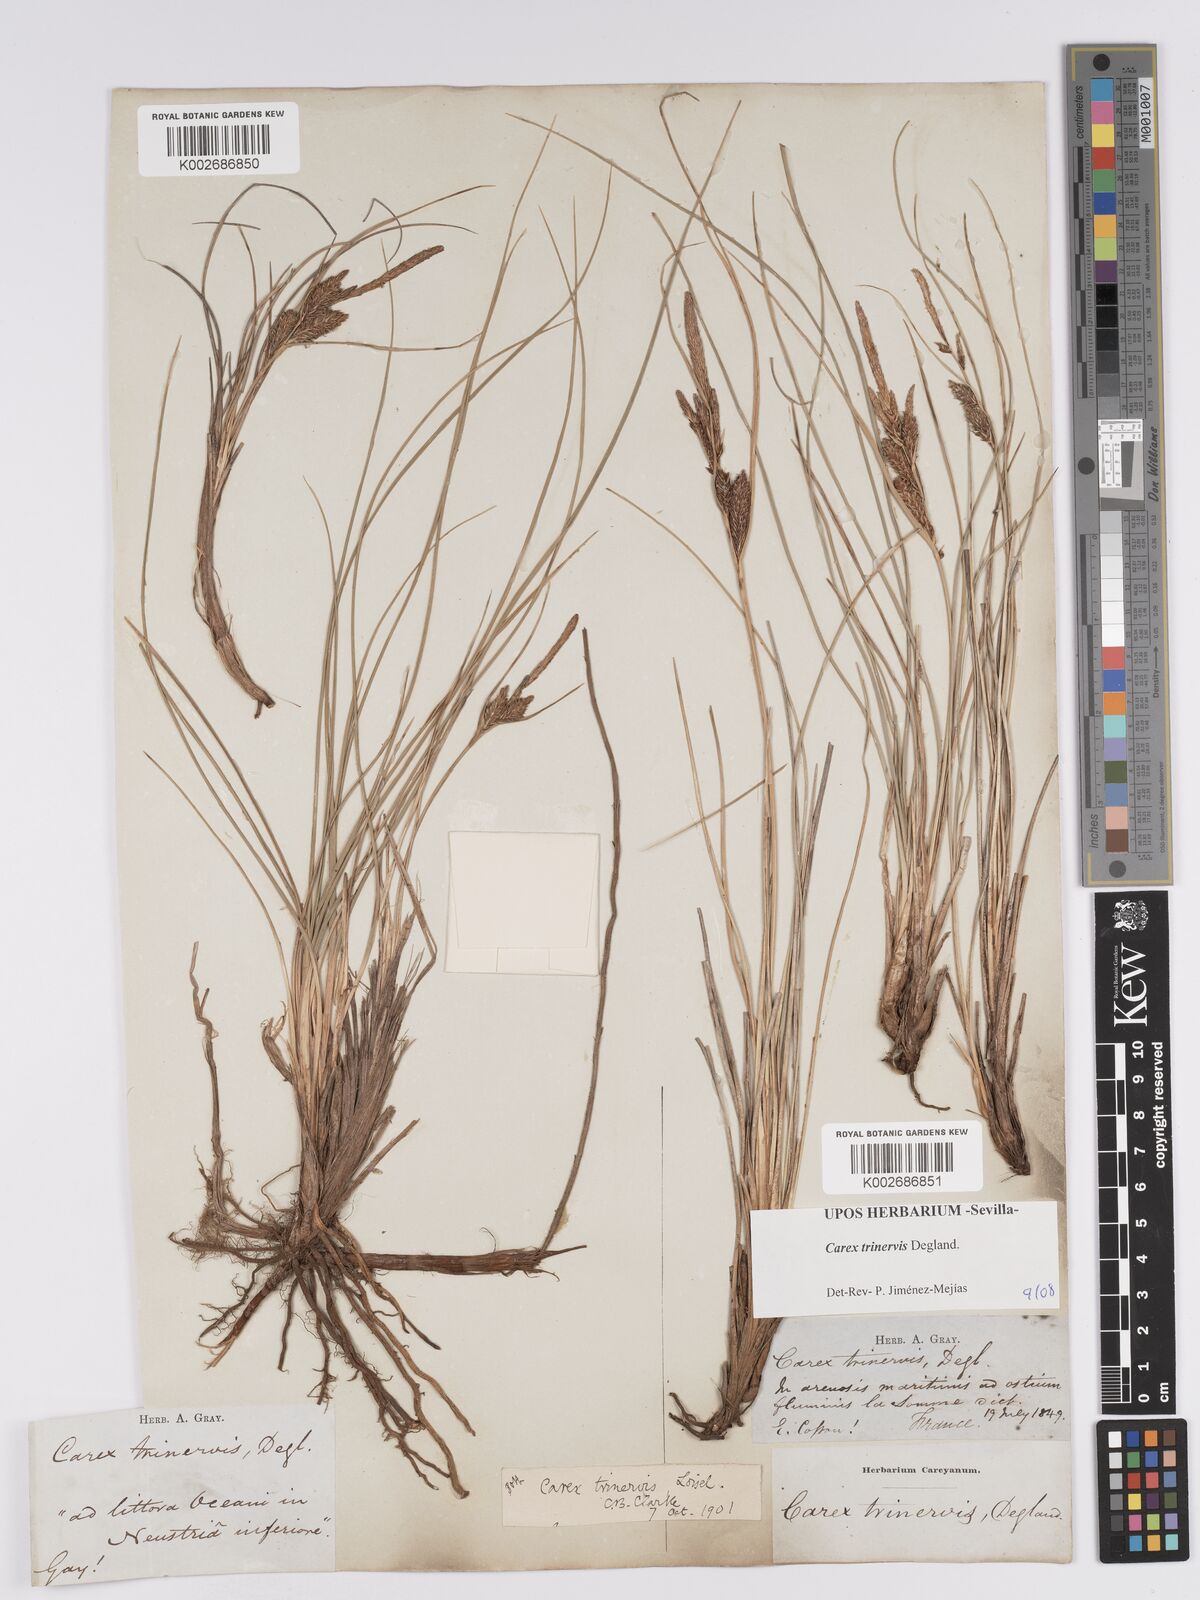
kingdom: Plantae
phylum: Tracheophyta
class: Liliopsida
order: Poales
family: Cyperaceae
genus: Carex
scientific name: Carex trinervis
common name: Three-nerved sedge
